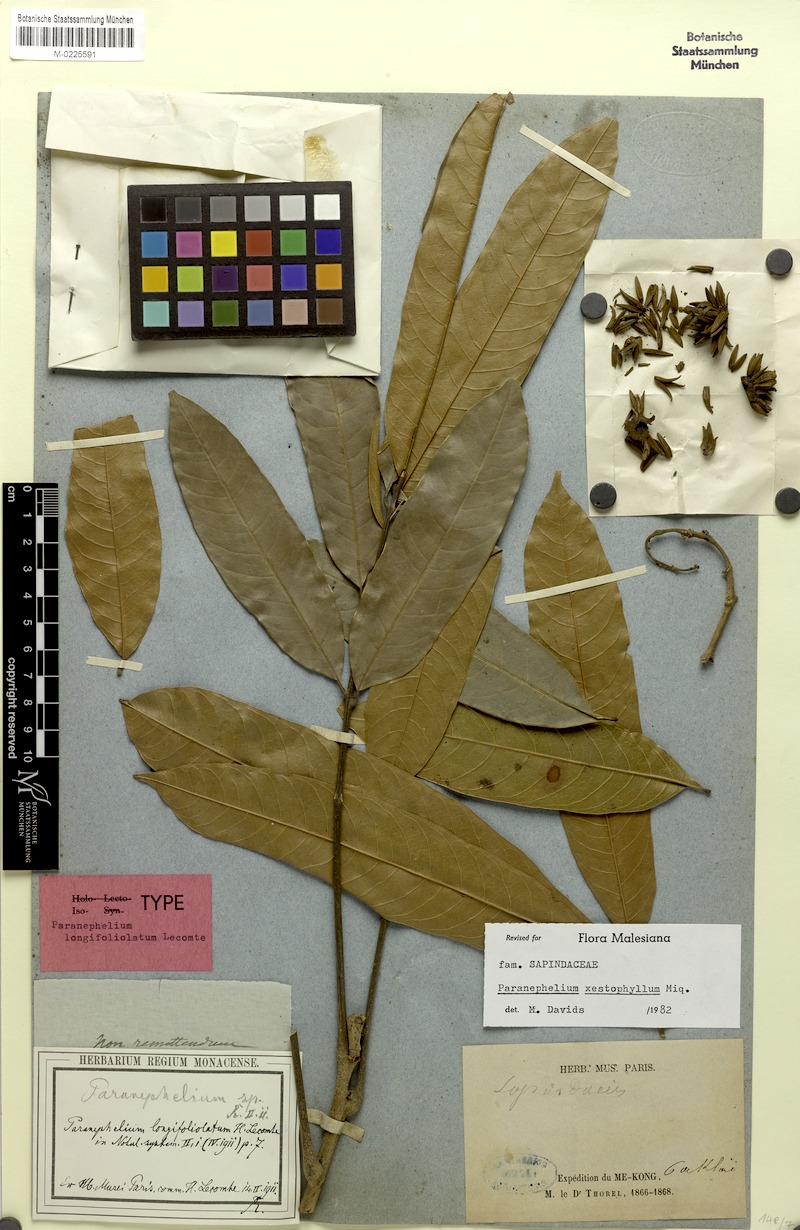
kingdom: Plantae
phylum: Tracheophyta
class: Magnoliopsida
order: Sapindales
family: Sapindaceae
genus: Paranephelium
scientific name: Paranephelium xestophyllum
